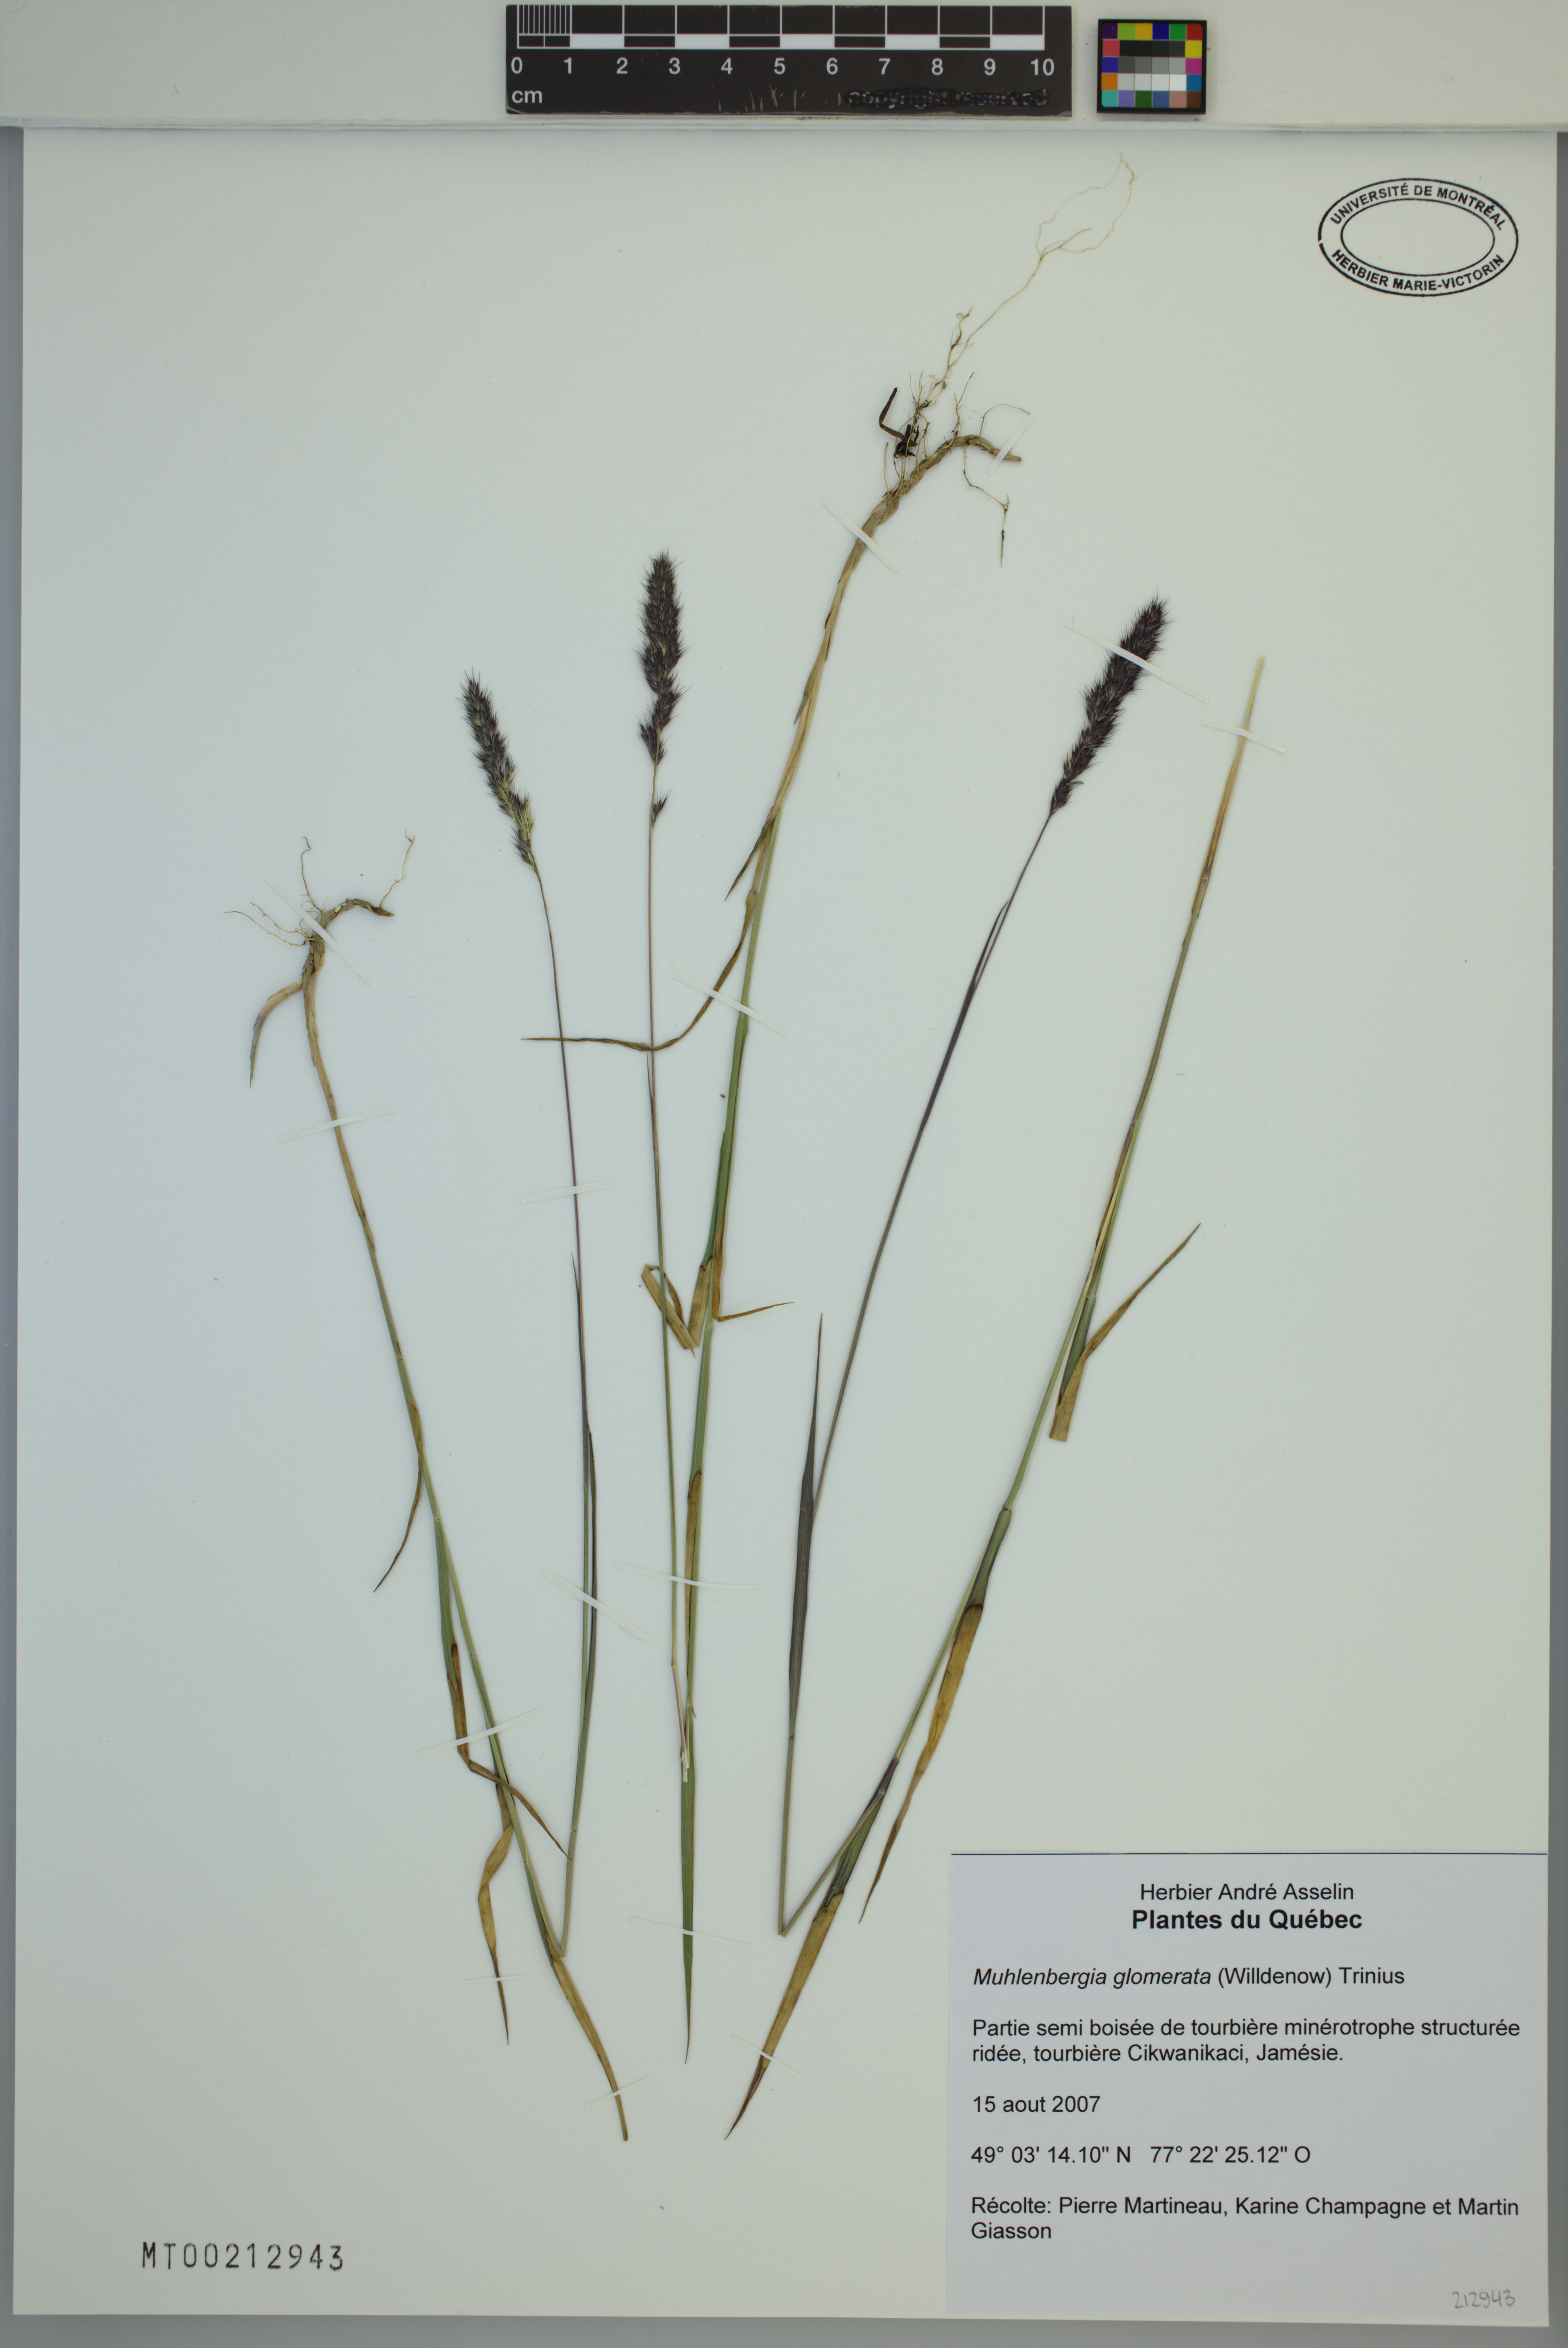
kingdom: Plantae
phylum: Tracheophyta
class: Liliopsida
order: Poales
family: Poaceae
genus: Muhlenbergia
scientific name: Muhlenbergia glomerata
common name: Bog muhly
